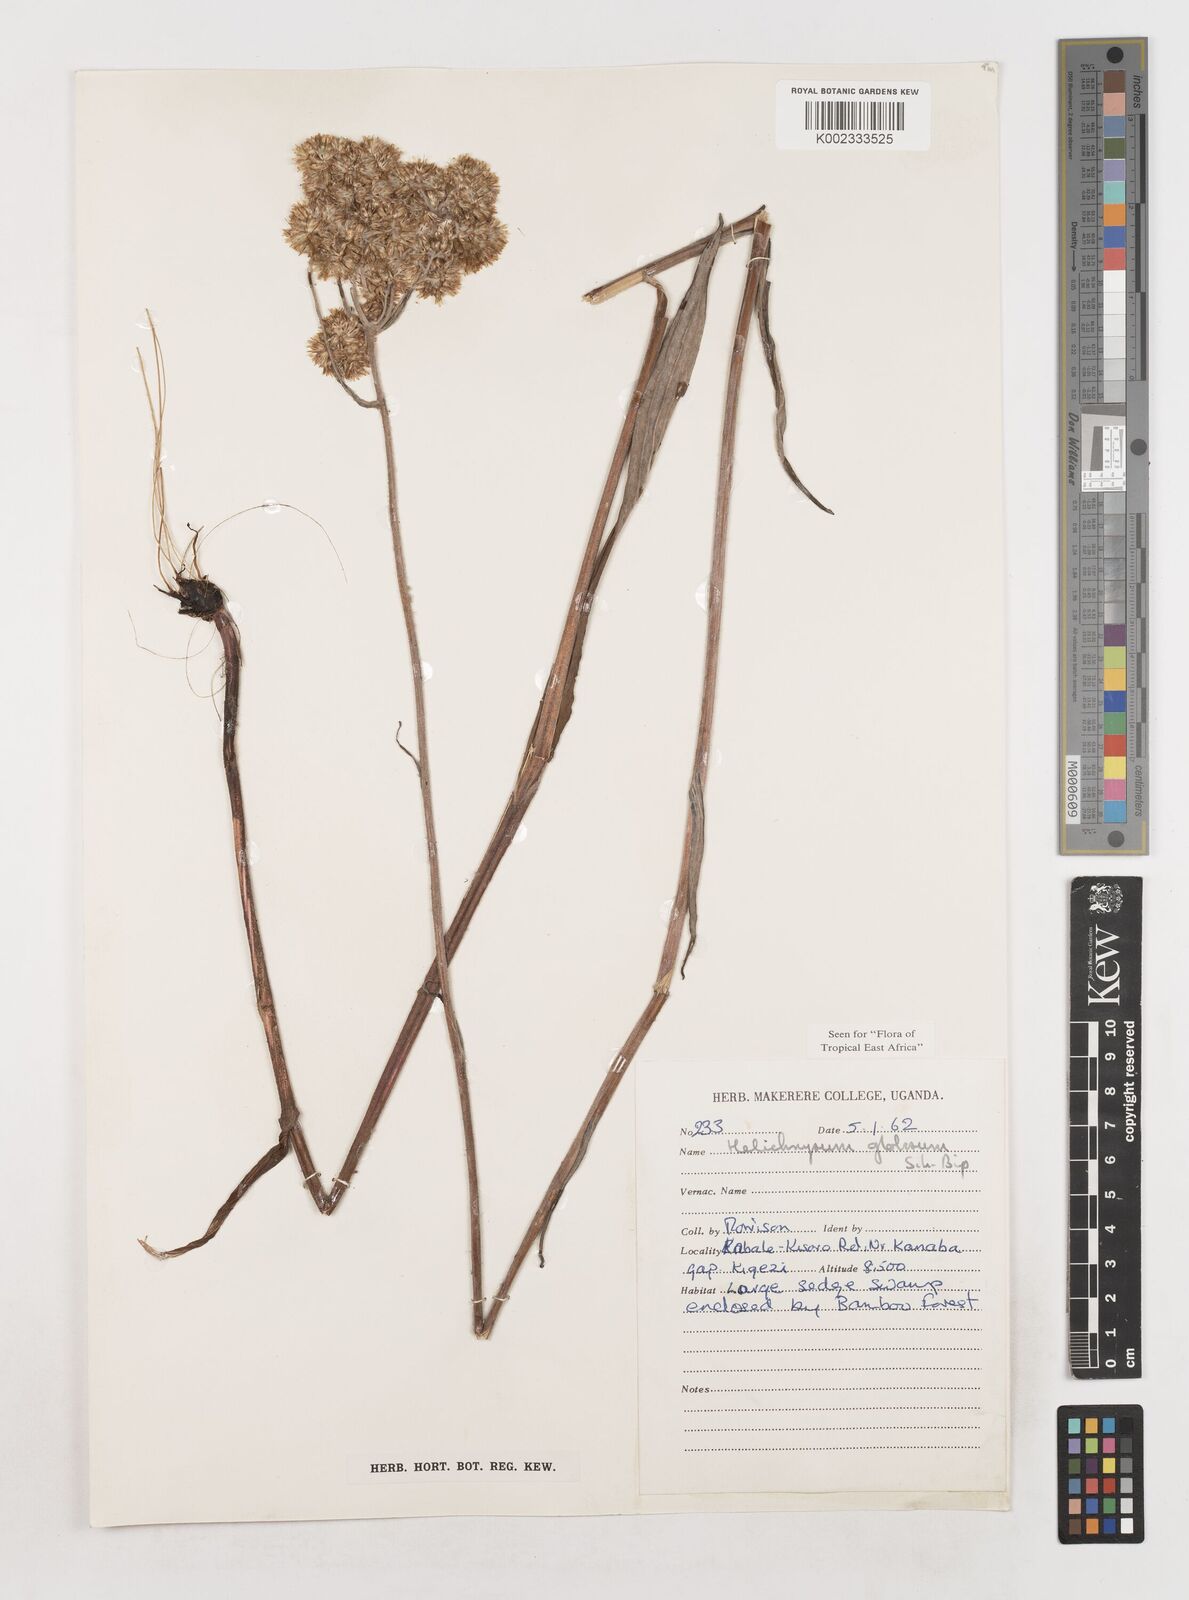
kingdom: Plantae
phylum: Tracheophyta
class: Magnoliopsida
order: Asterales
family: Asteraceae
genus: Helichrysum
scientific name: Helichrysum globosum
